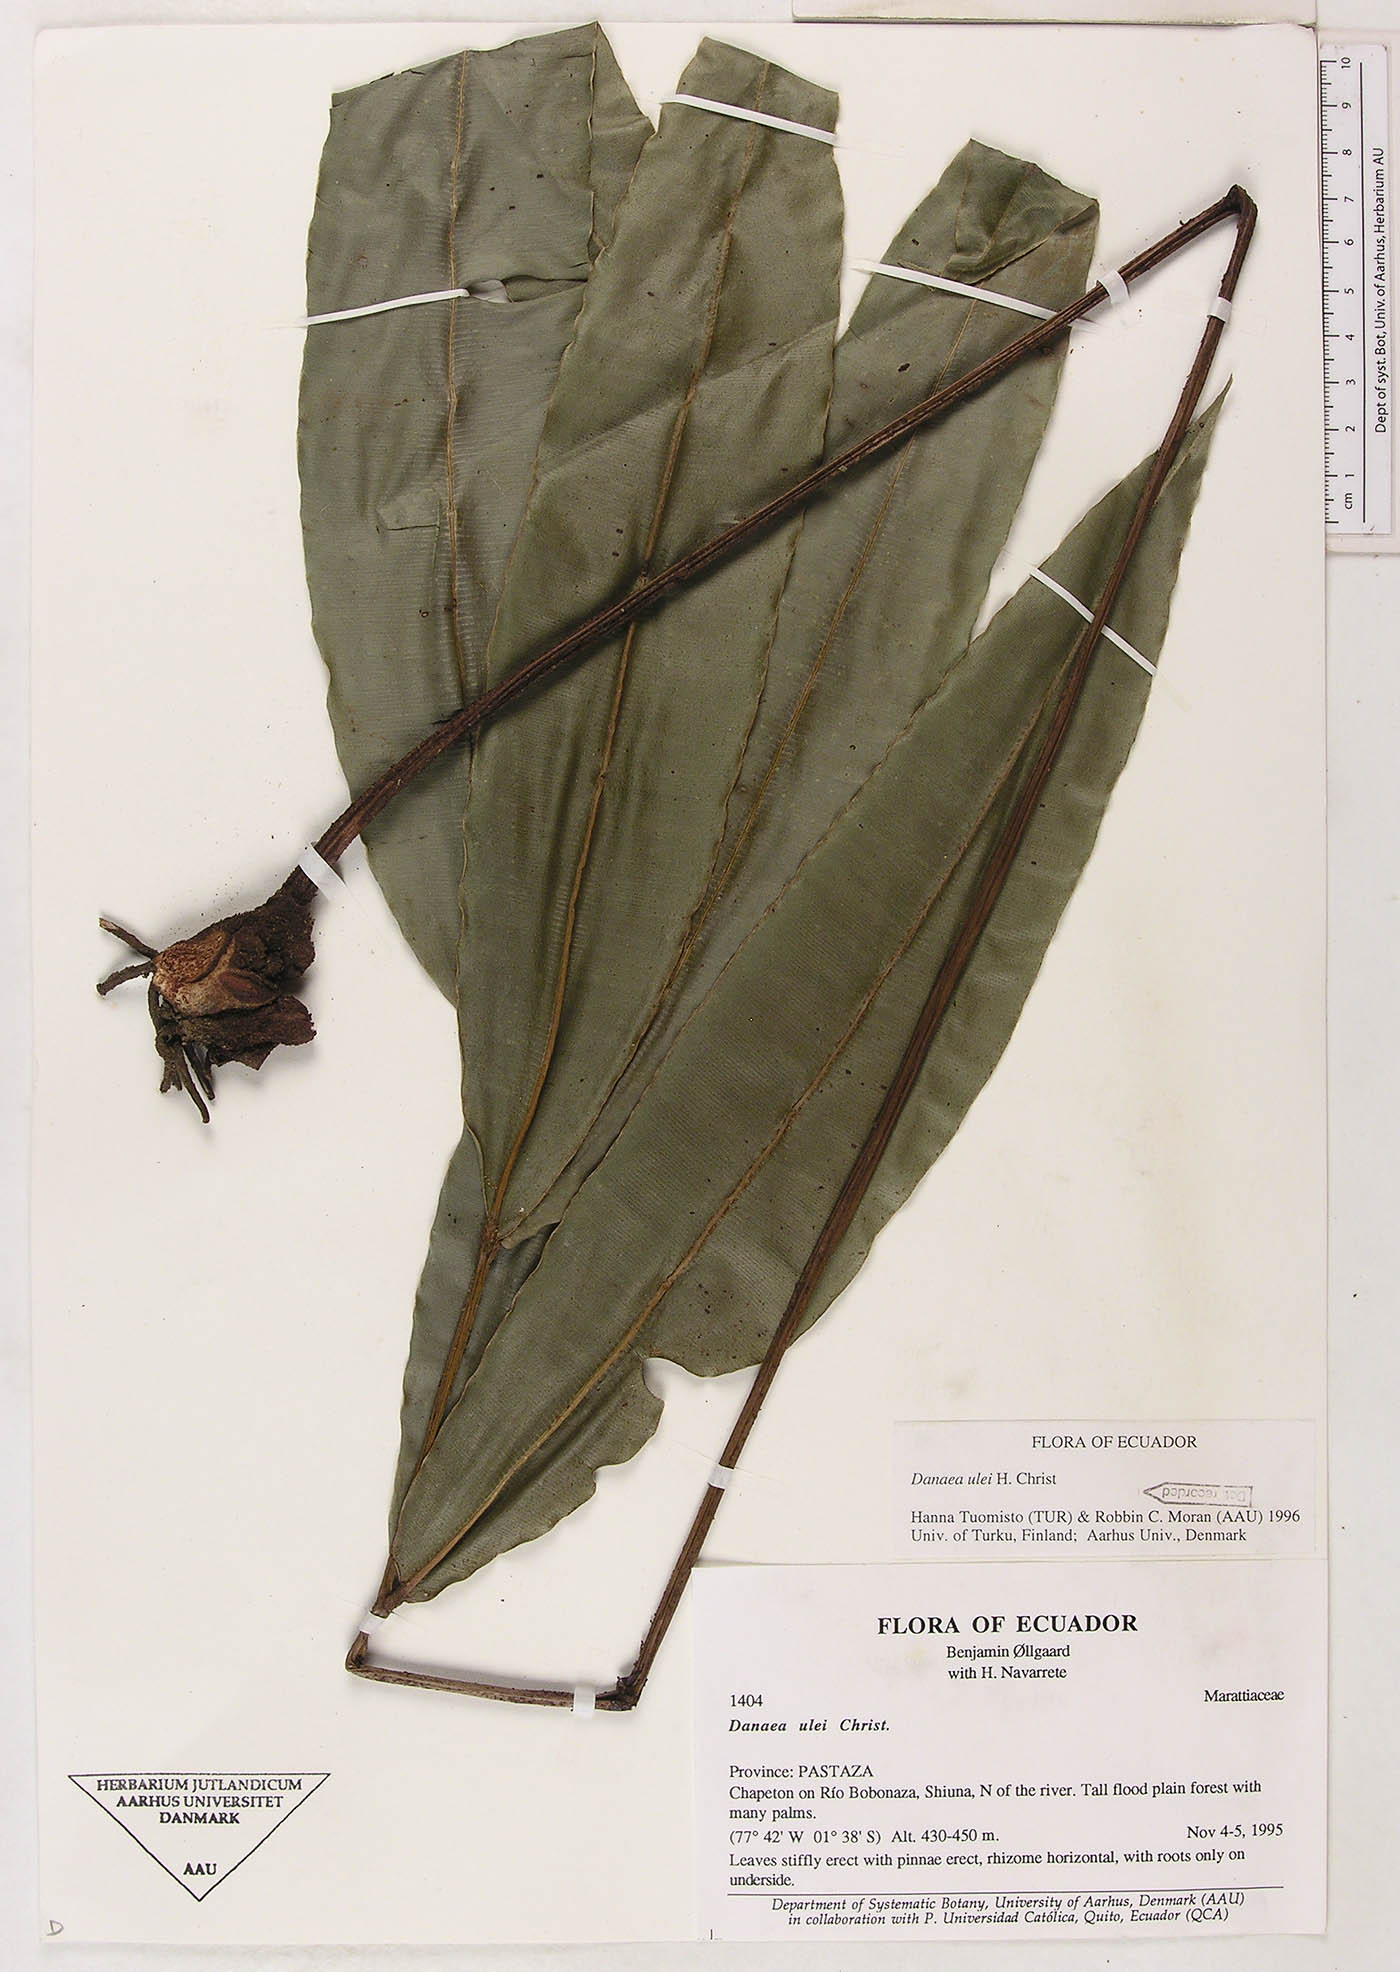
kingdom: Plantae
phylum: Tracheophyta
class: Polypodiopsida
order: Marattiales
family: Marattiaceae
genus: Danaea
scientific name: Danaea cartilaginea
